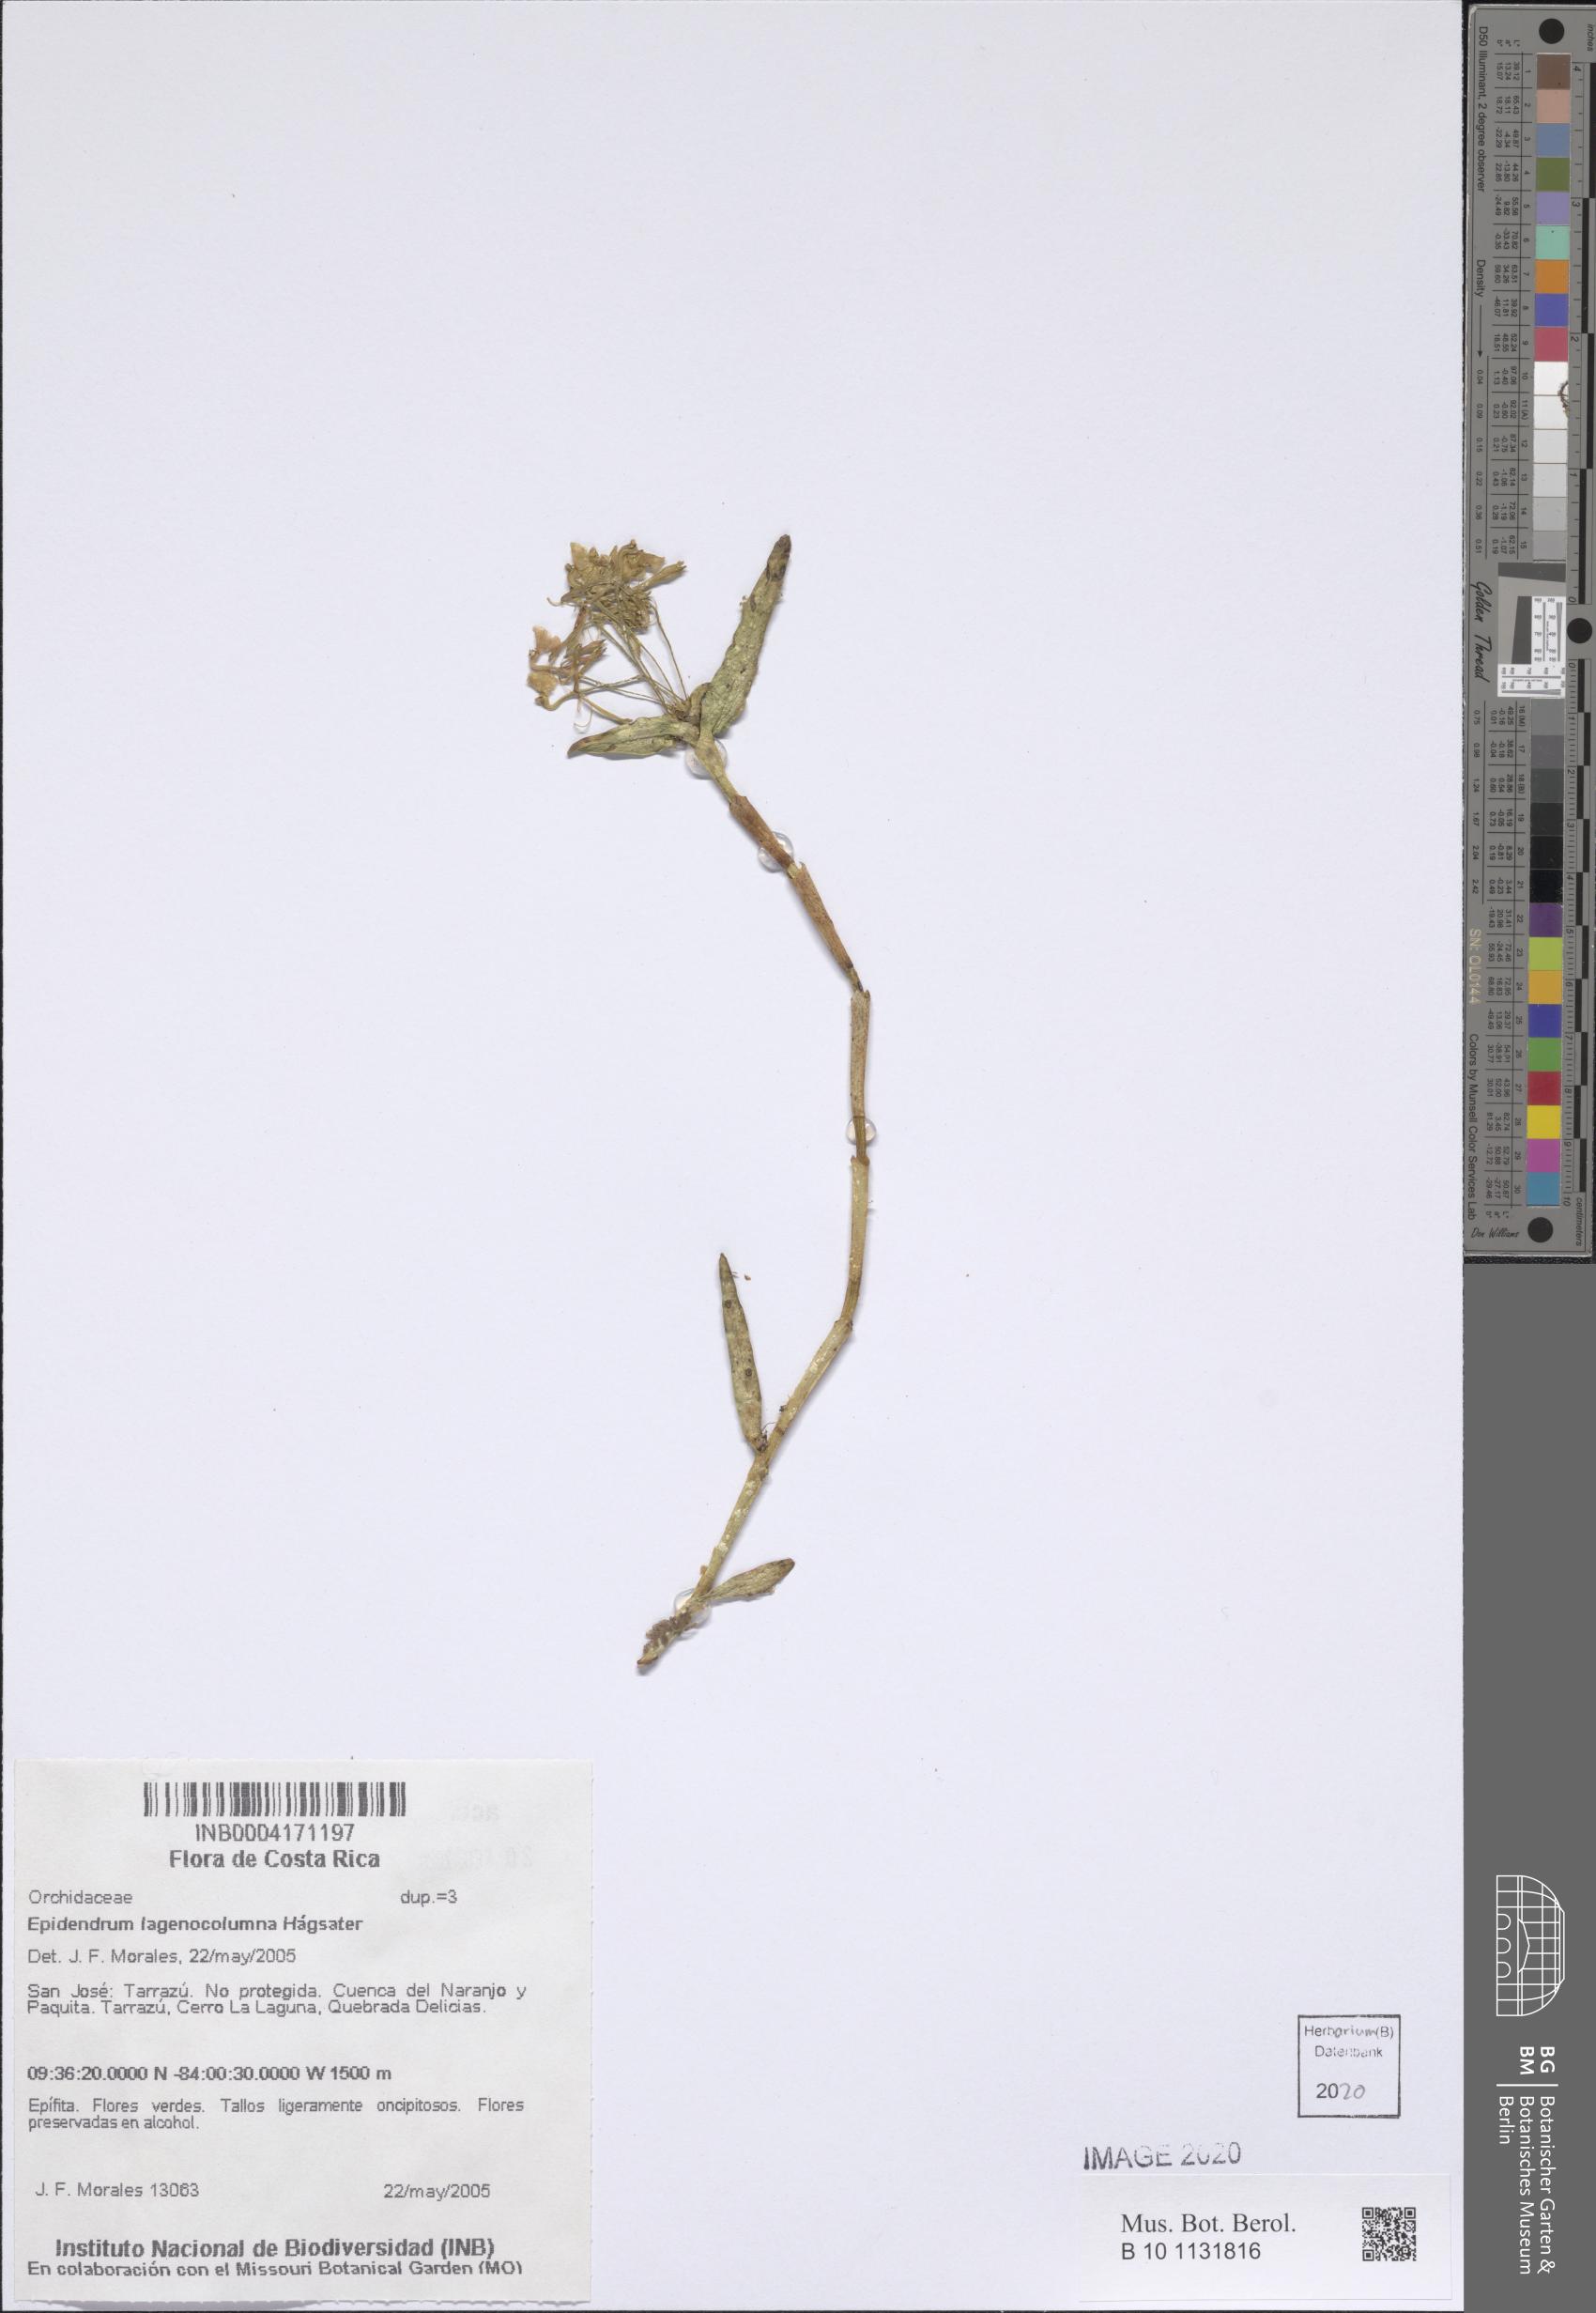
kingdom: Plantae
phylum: Tracheophyta
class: Liliopsida
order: Asparagales
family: Orchidaceae
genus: Epidendrum
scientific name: Epidendrum lagenocolumna
